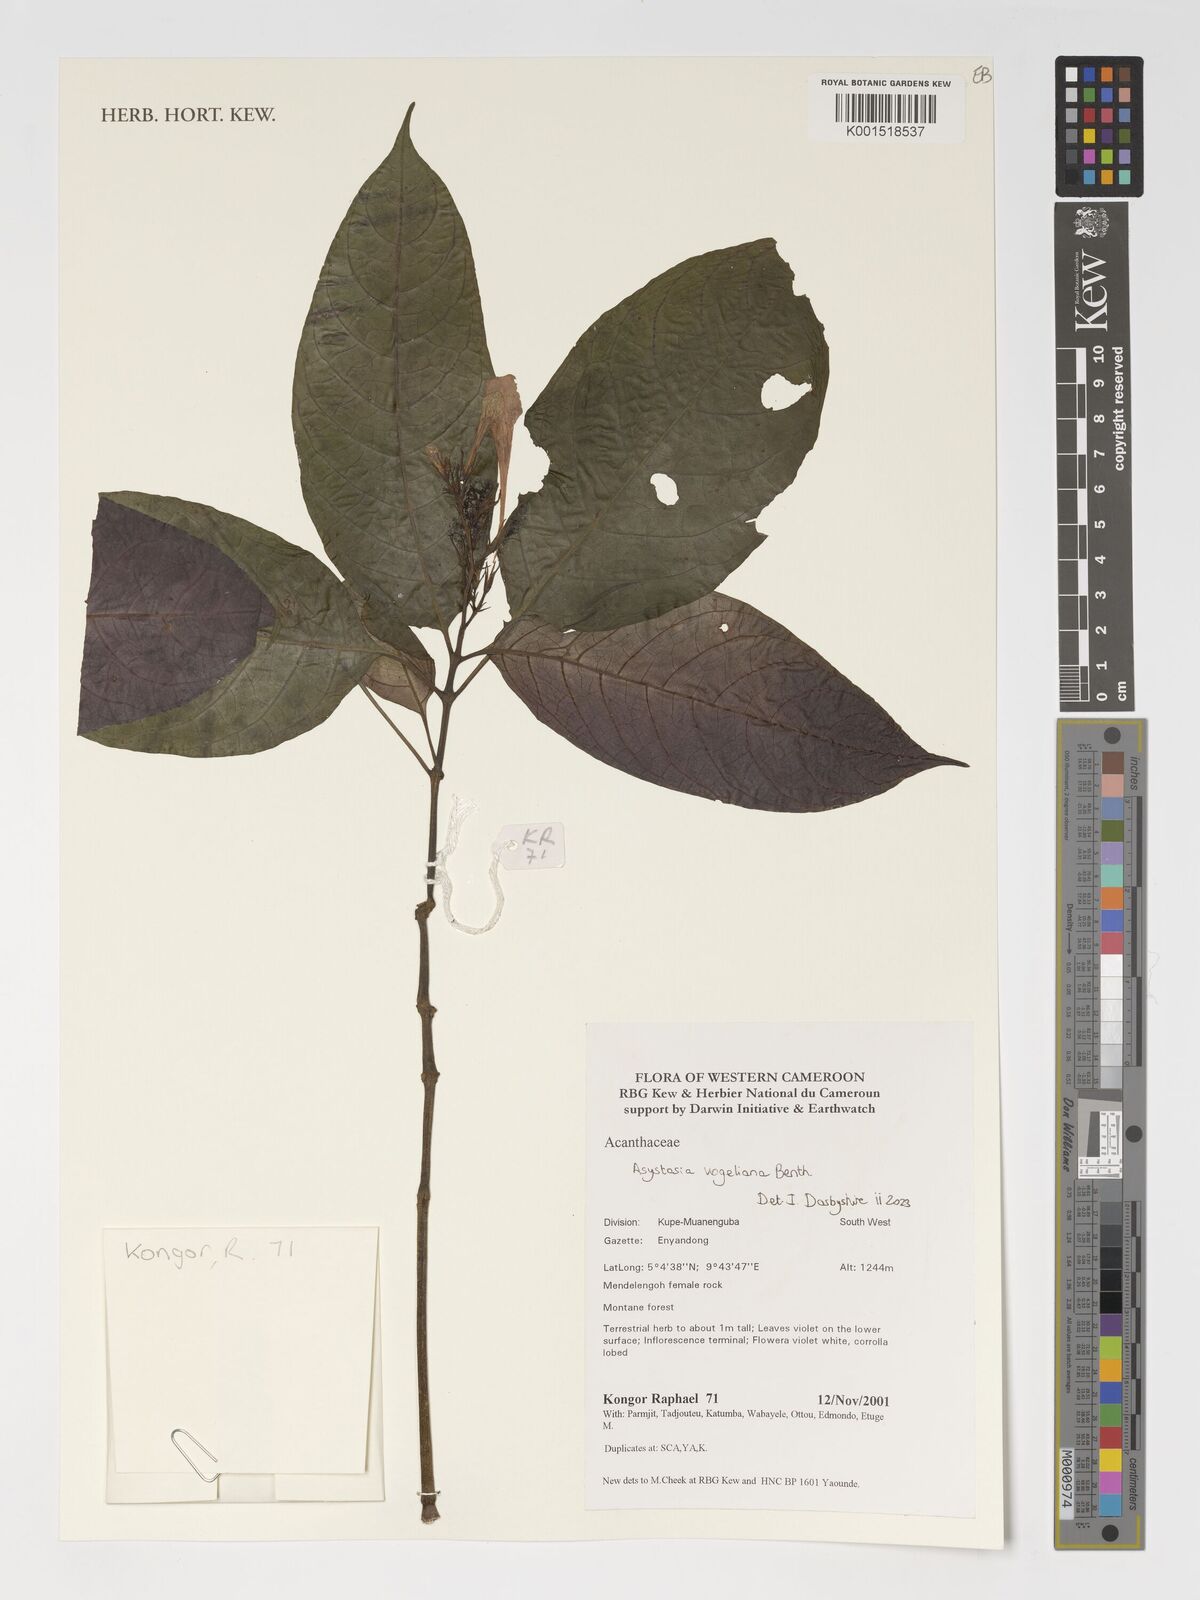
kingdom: Plantae
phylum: Tracheophyta
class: Magnoliopsida
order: Lamiales
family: Acanthaceae
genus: Asystasia
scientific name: Asystasia vogeliana
